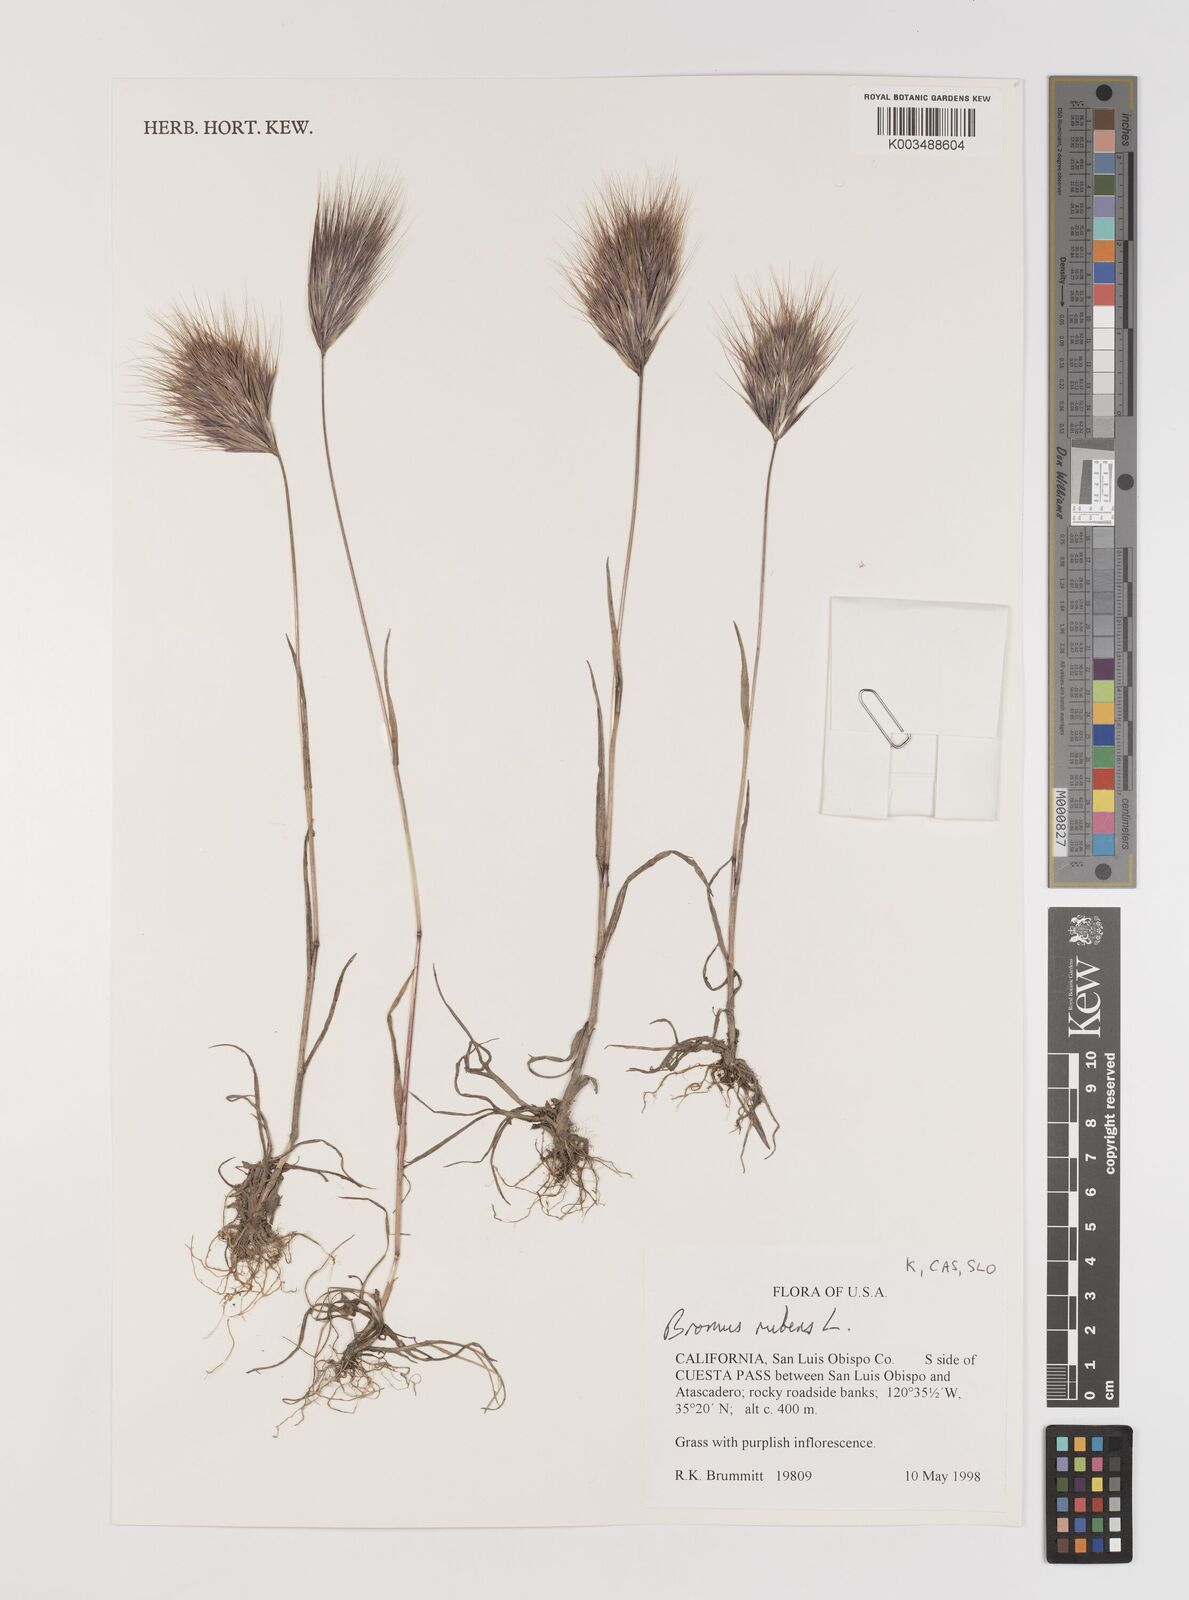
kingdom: Plantae
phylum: Tracheophyta
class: Liliopsida
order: Poales
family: Poaceae
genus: Bromus
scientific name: Bromus rubens
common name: Red brome
